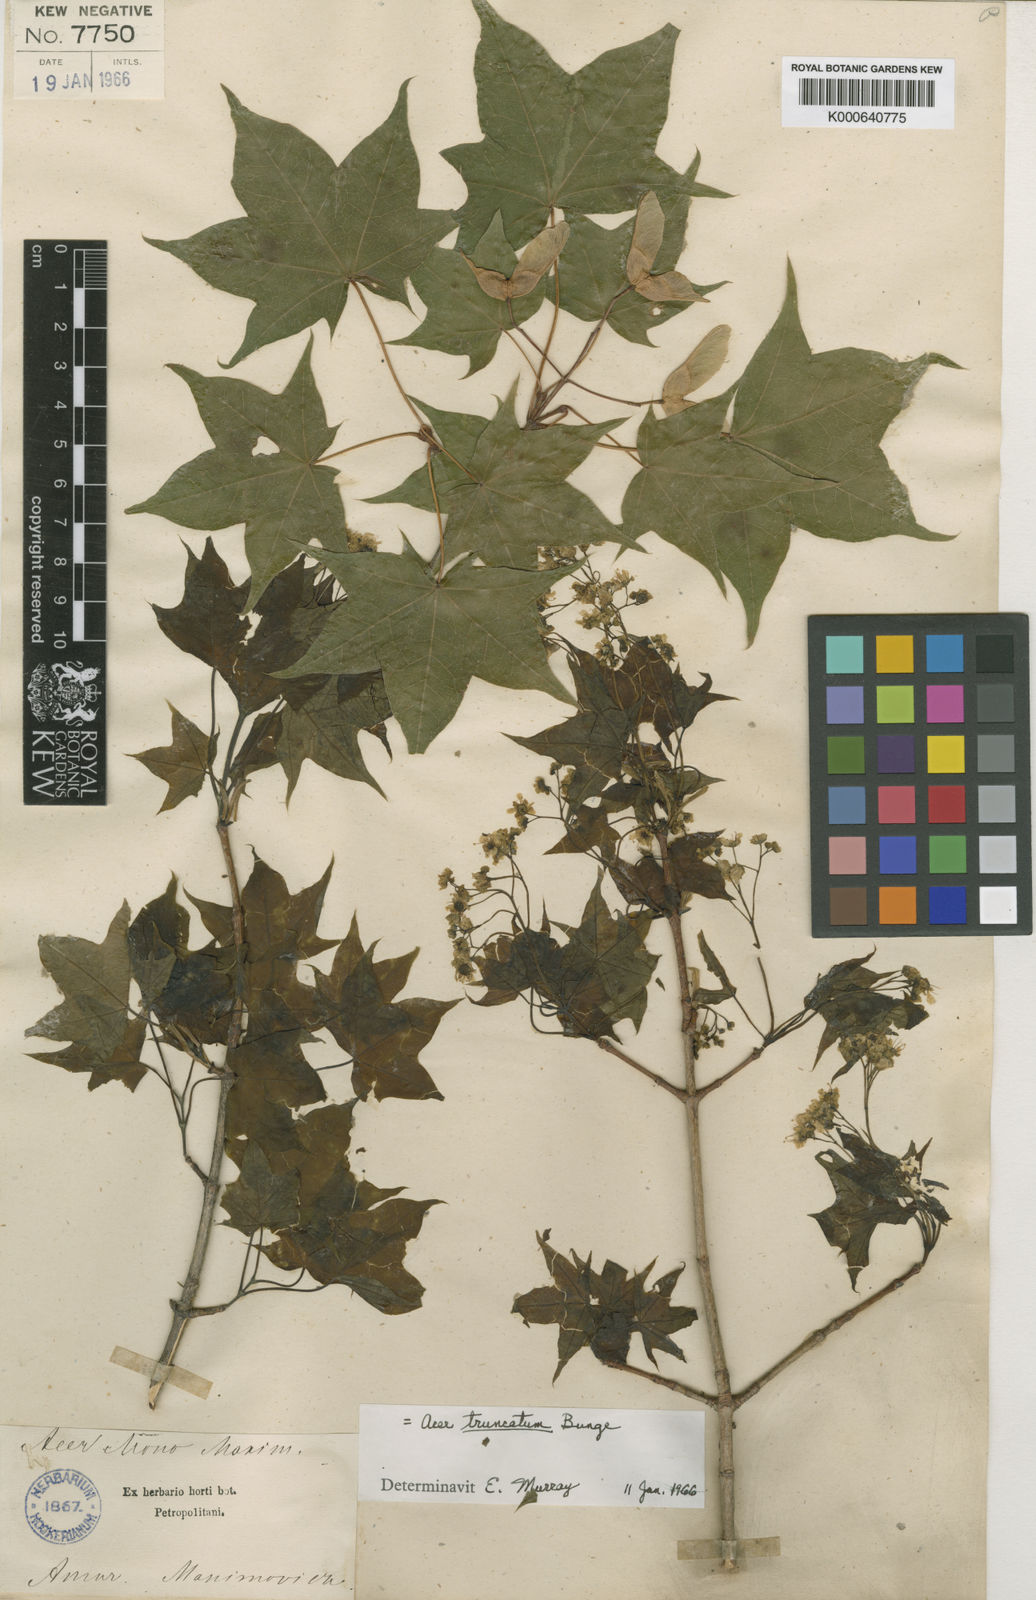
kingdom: Plantae
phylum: Tracheophyta
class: Magnoliopsida
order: Sapindales
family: Sapindaceae
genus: Acer
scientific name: Acer pictum
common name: The painted maple
